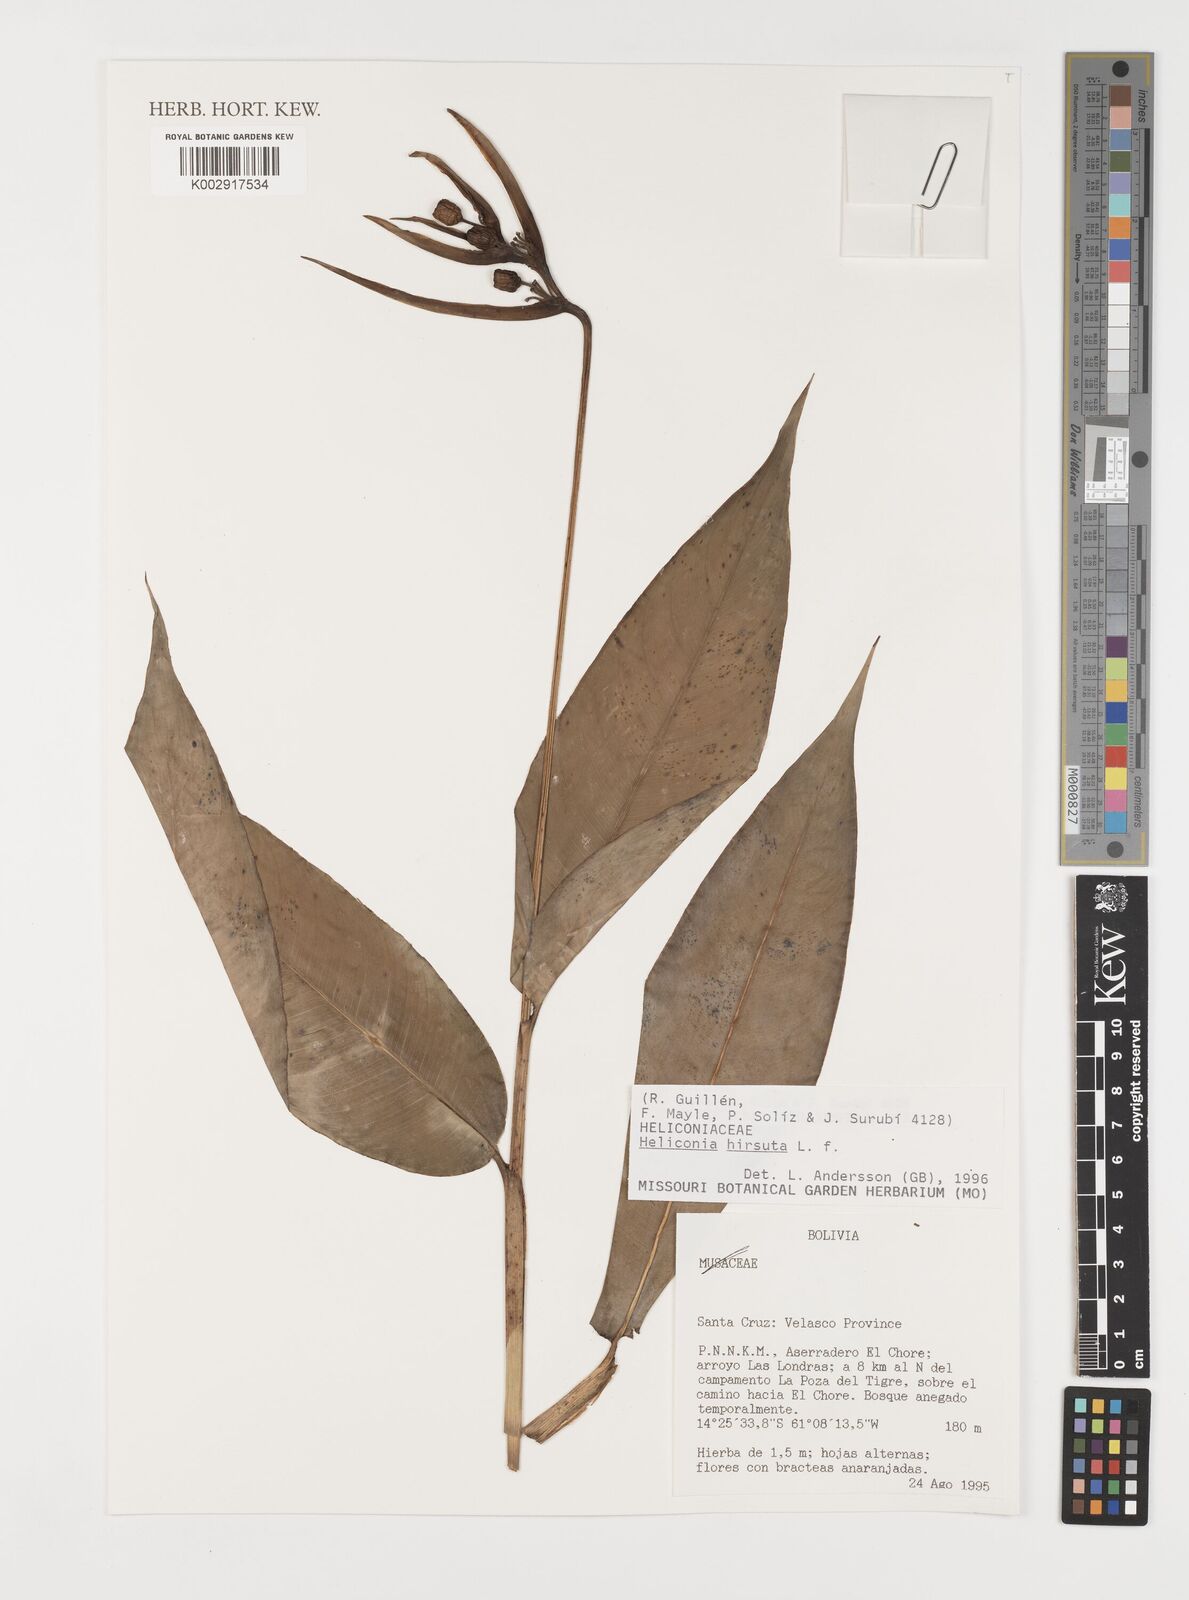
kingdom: Plantae
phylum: Tracheophyta
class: Liliopsida
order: Zingiberales
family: Heliconiaceae
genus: Heliconia
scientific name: Heliconia hirsuta
